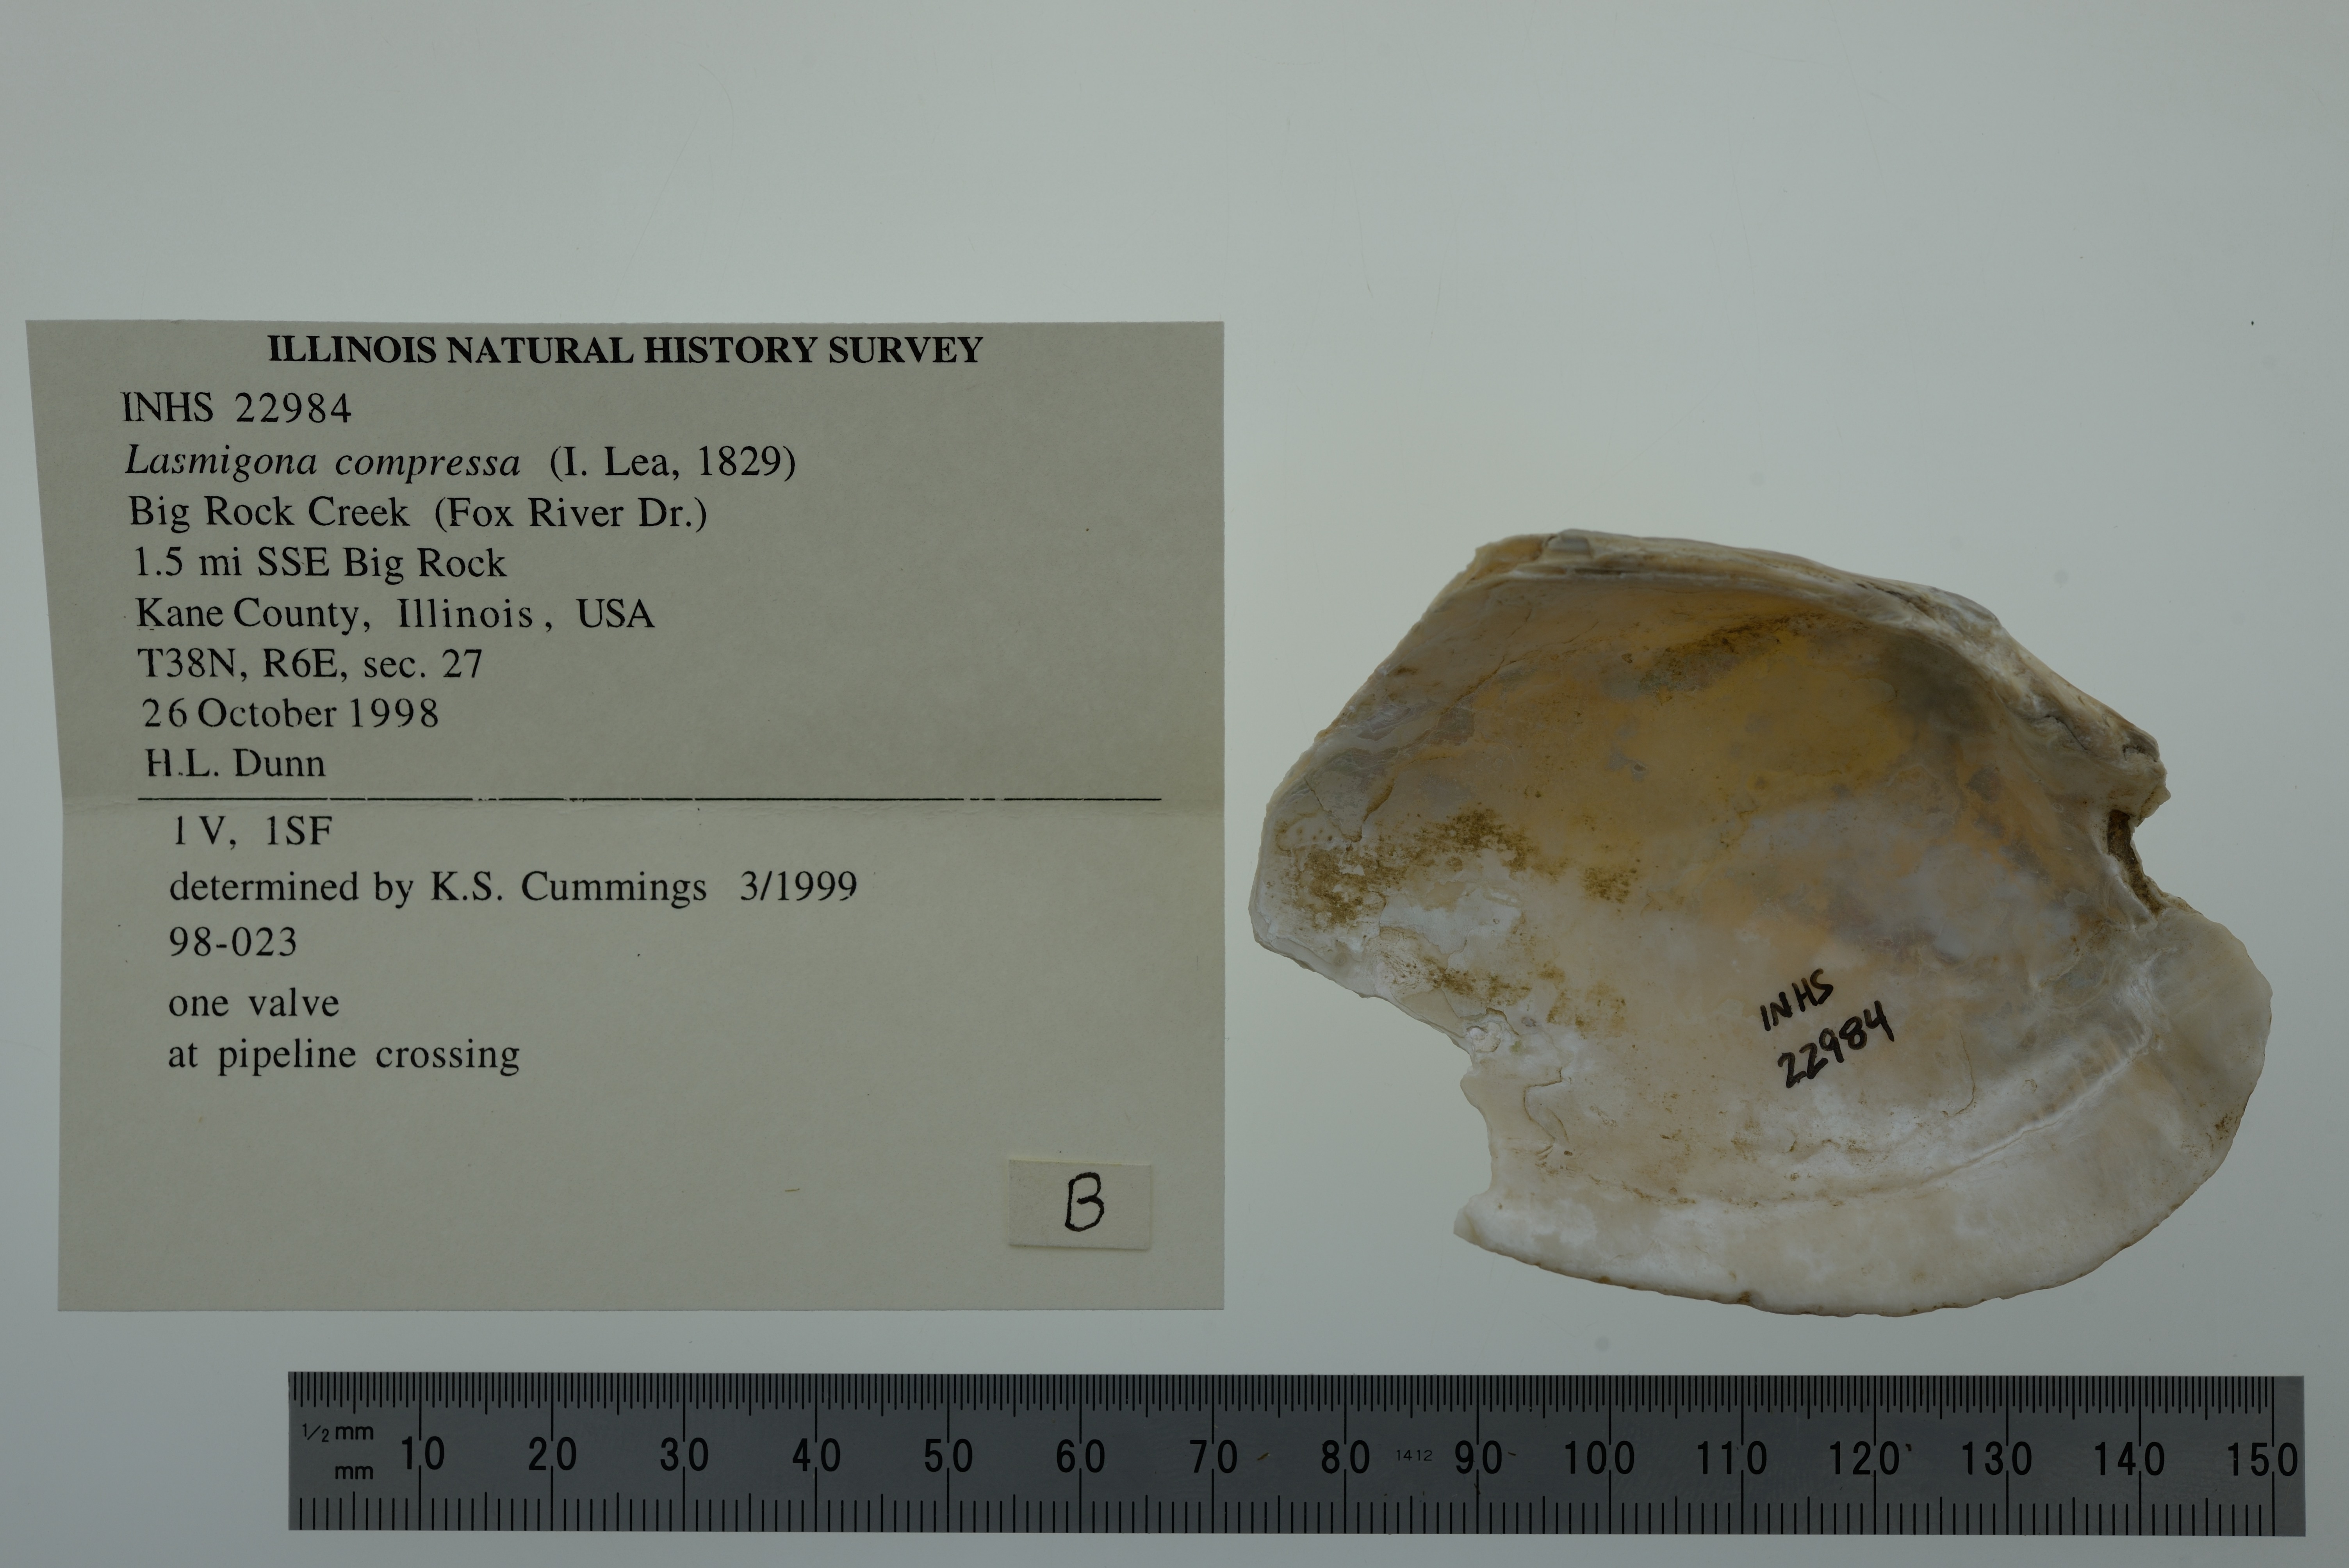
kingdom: Animalia
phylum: Mollusca
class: Bivalvia
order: Unionida
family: Unionidae
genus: Lasmigona
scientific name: Lasmigona compressa
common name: Creek heelsplitter
